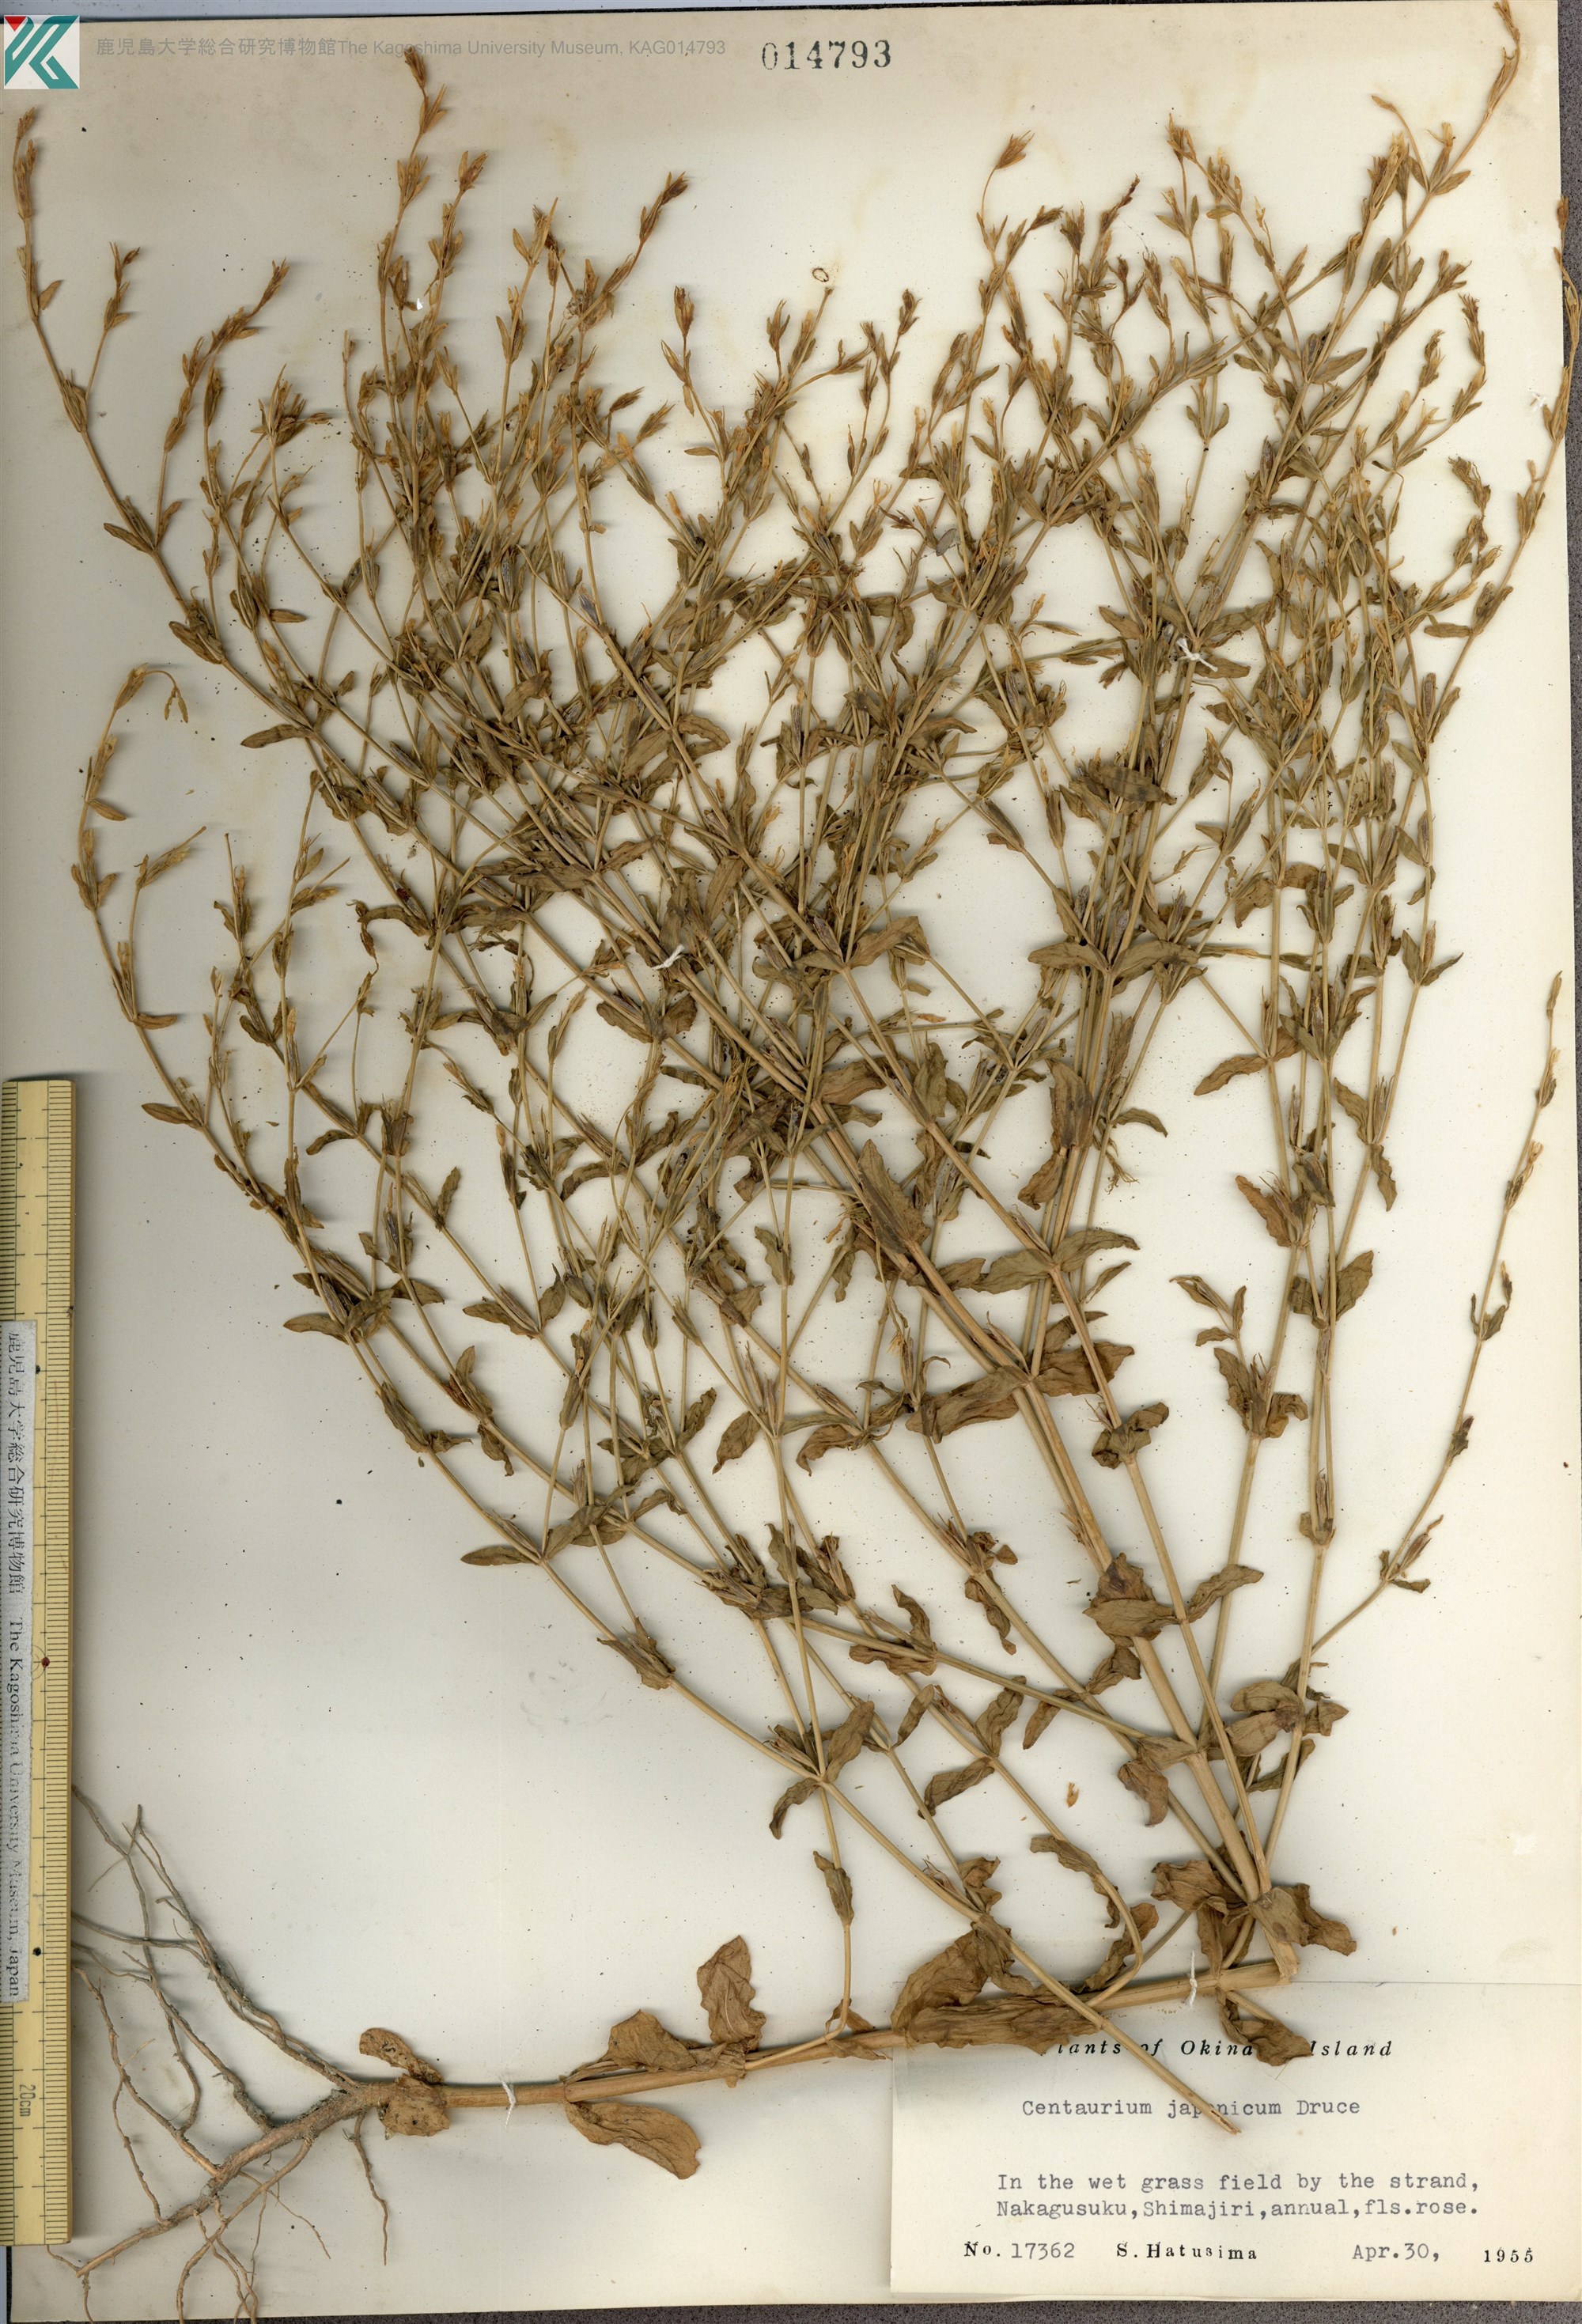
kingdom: Plantae
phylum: Tracheophyta
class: Magnoliopsida
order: Gentianales
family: Gentianaceae
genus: Schenkia
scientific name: Schenkia japonica
